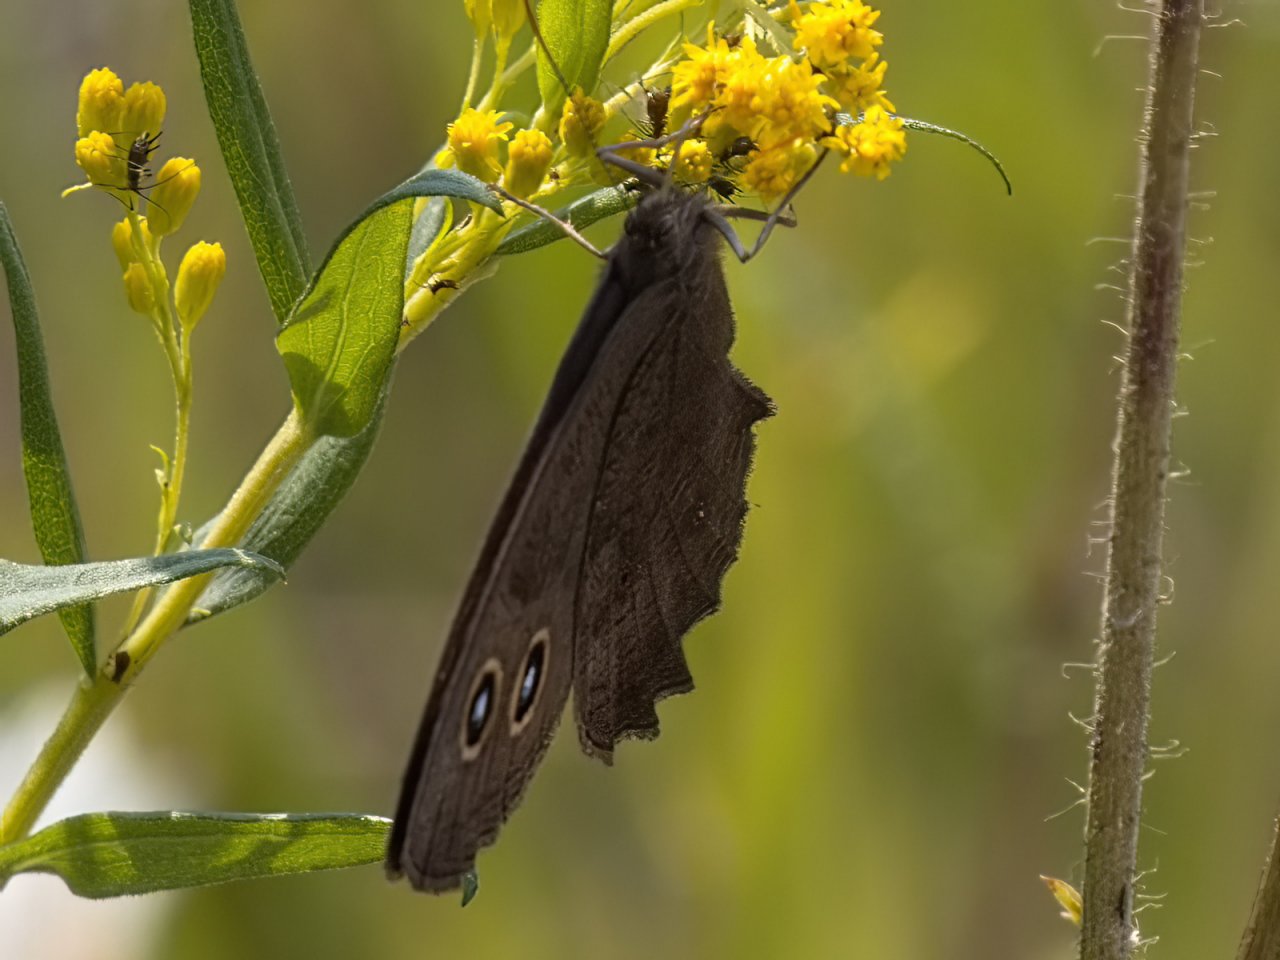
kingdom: Animalia
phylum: Arthropoda
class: Insecta
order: Lepidoptera
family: Nymphalidae
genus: Cercyonis
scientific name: Cercyonis pegala
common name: Common Wood-Nymph
